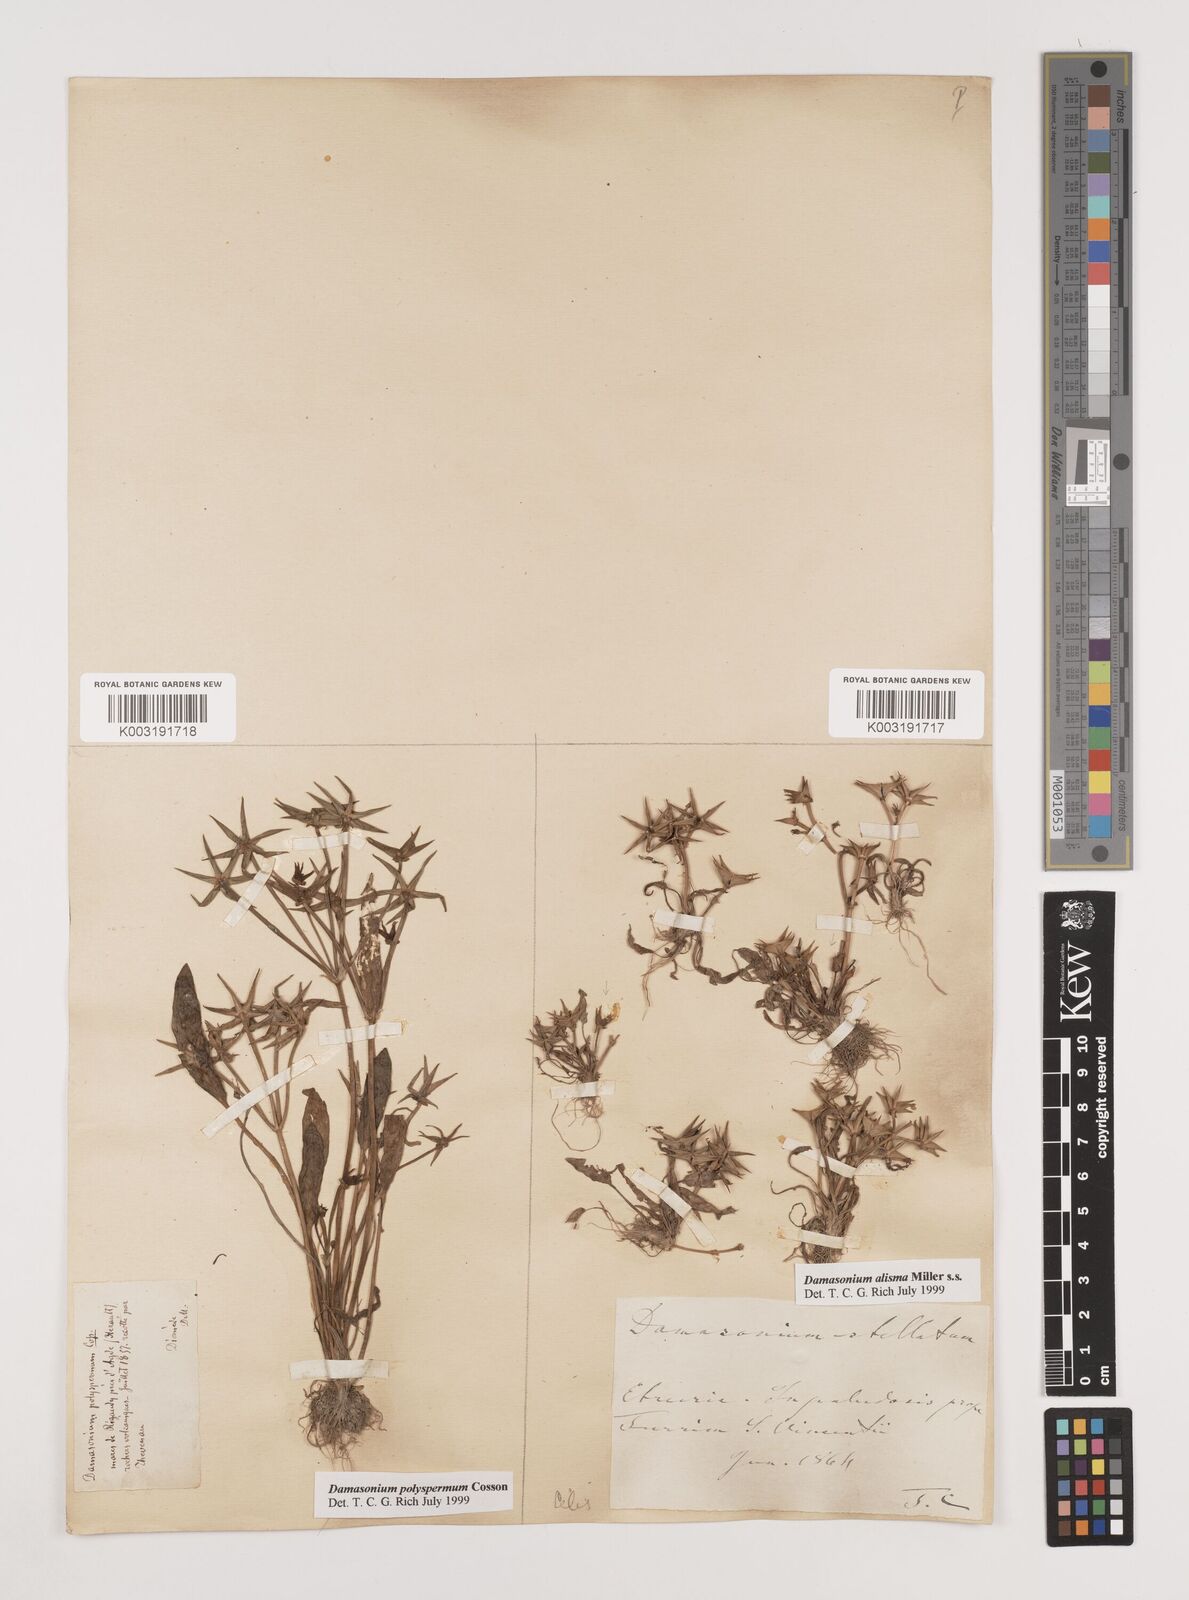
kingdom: Plantae
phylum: Tracheophyta
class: Liliopsida
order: Alismatales
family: Alismataceae
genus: Damasonium
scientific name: Damasonium polyspermum
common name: Starfruit
